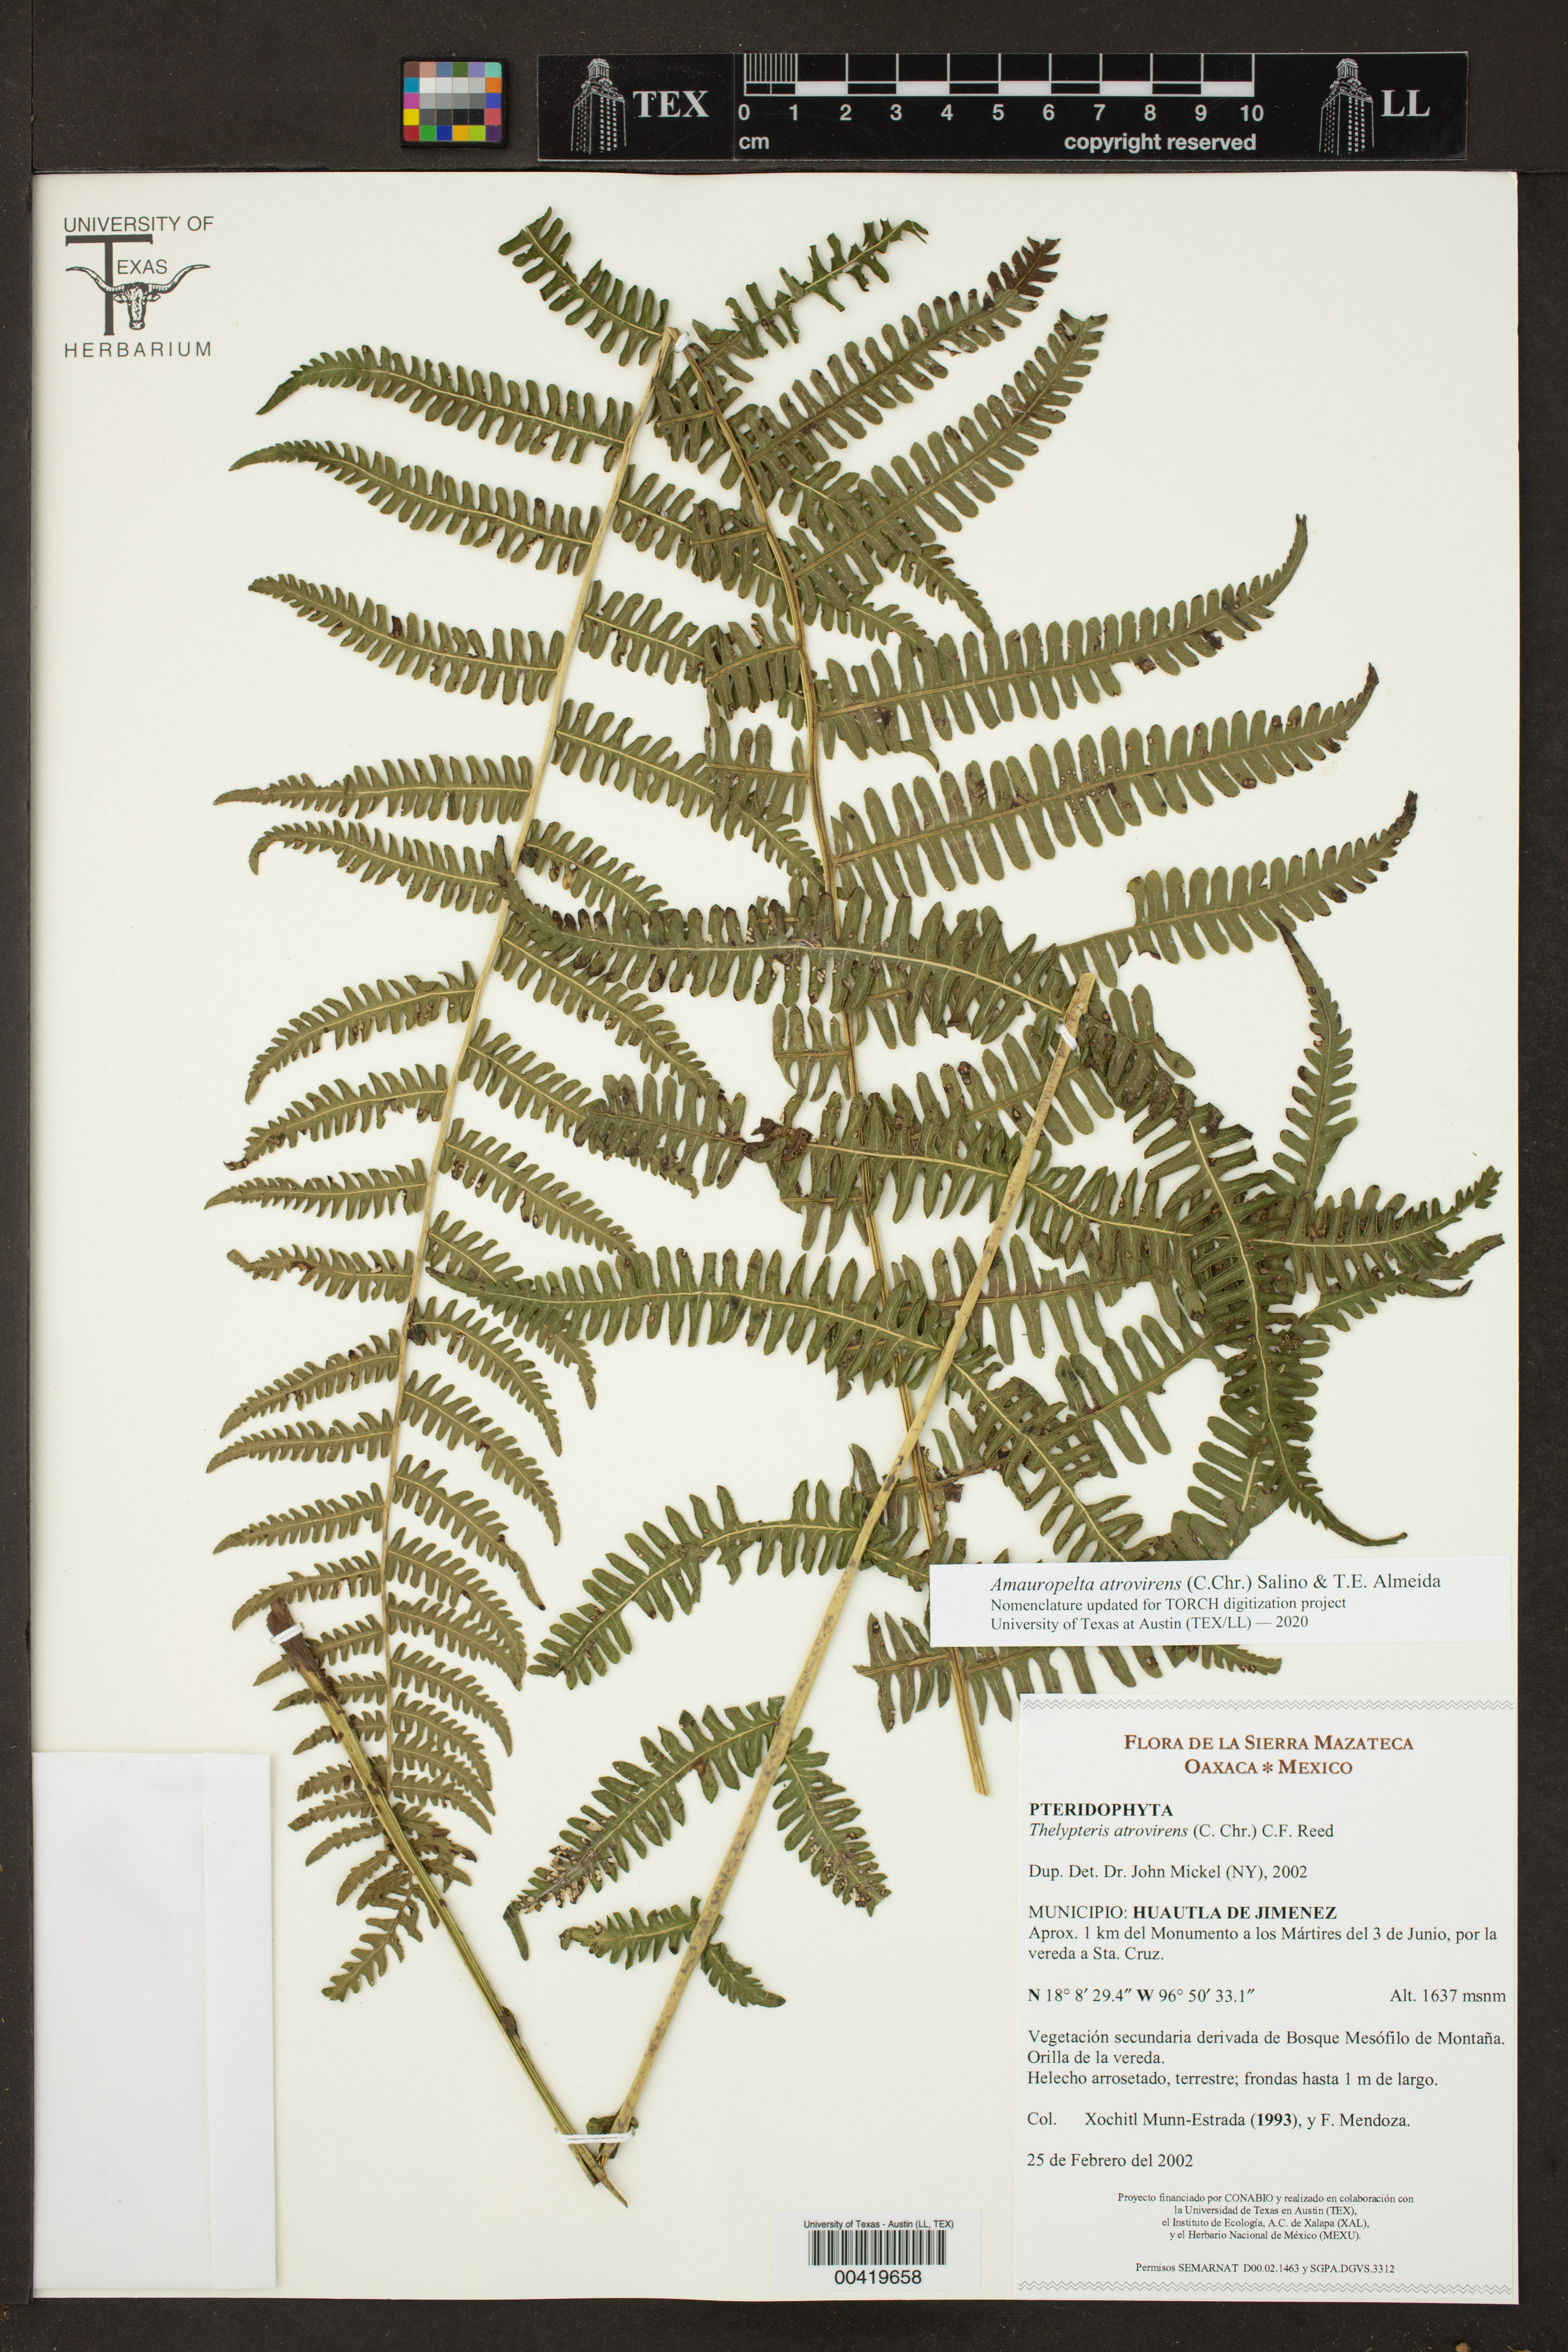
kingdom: Plantae
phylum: Tracheophyta
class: Polypodiopsida
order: Polypodiales
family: Thelypteridaceae
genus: Amauropelta
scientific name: Amauropelta atrovirens
